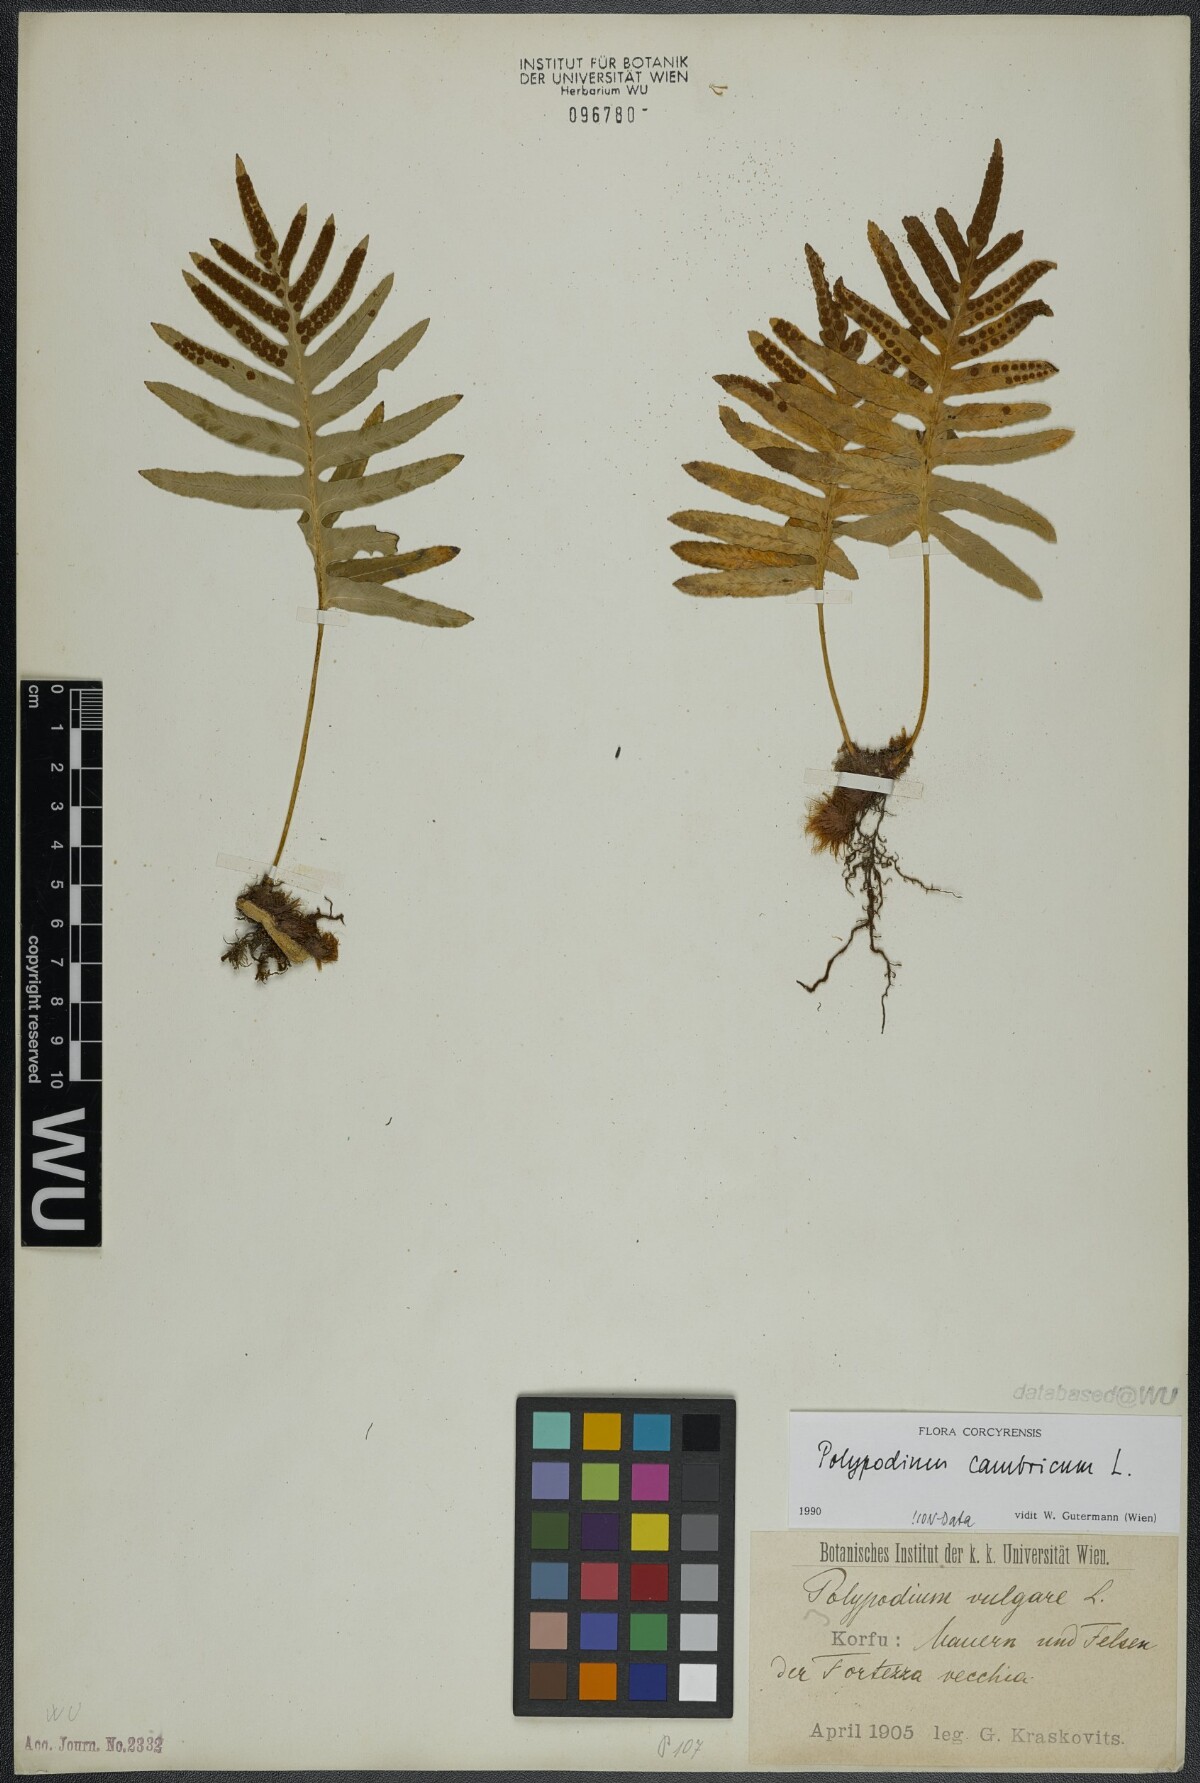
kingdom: Plantae
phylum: Tracheophyta
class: Polypodiopsida
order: Polypodiales
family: Polypodiaceae
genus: Polypodium
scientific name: Polypodium cambricum
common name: Southern polypody
